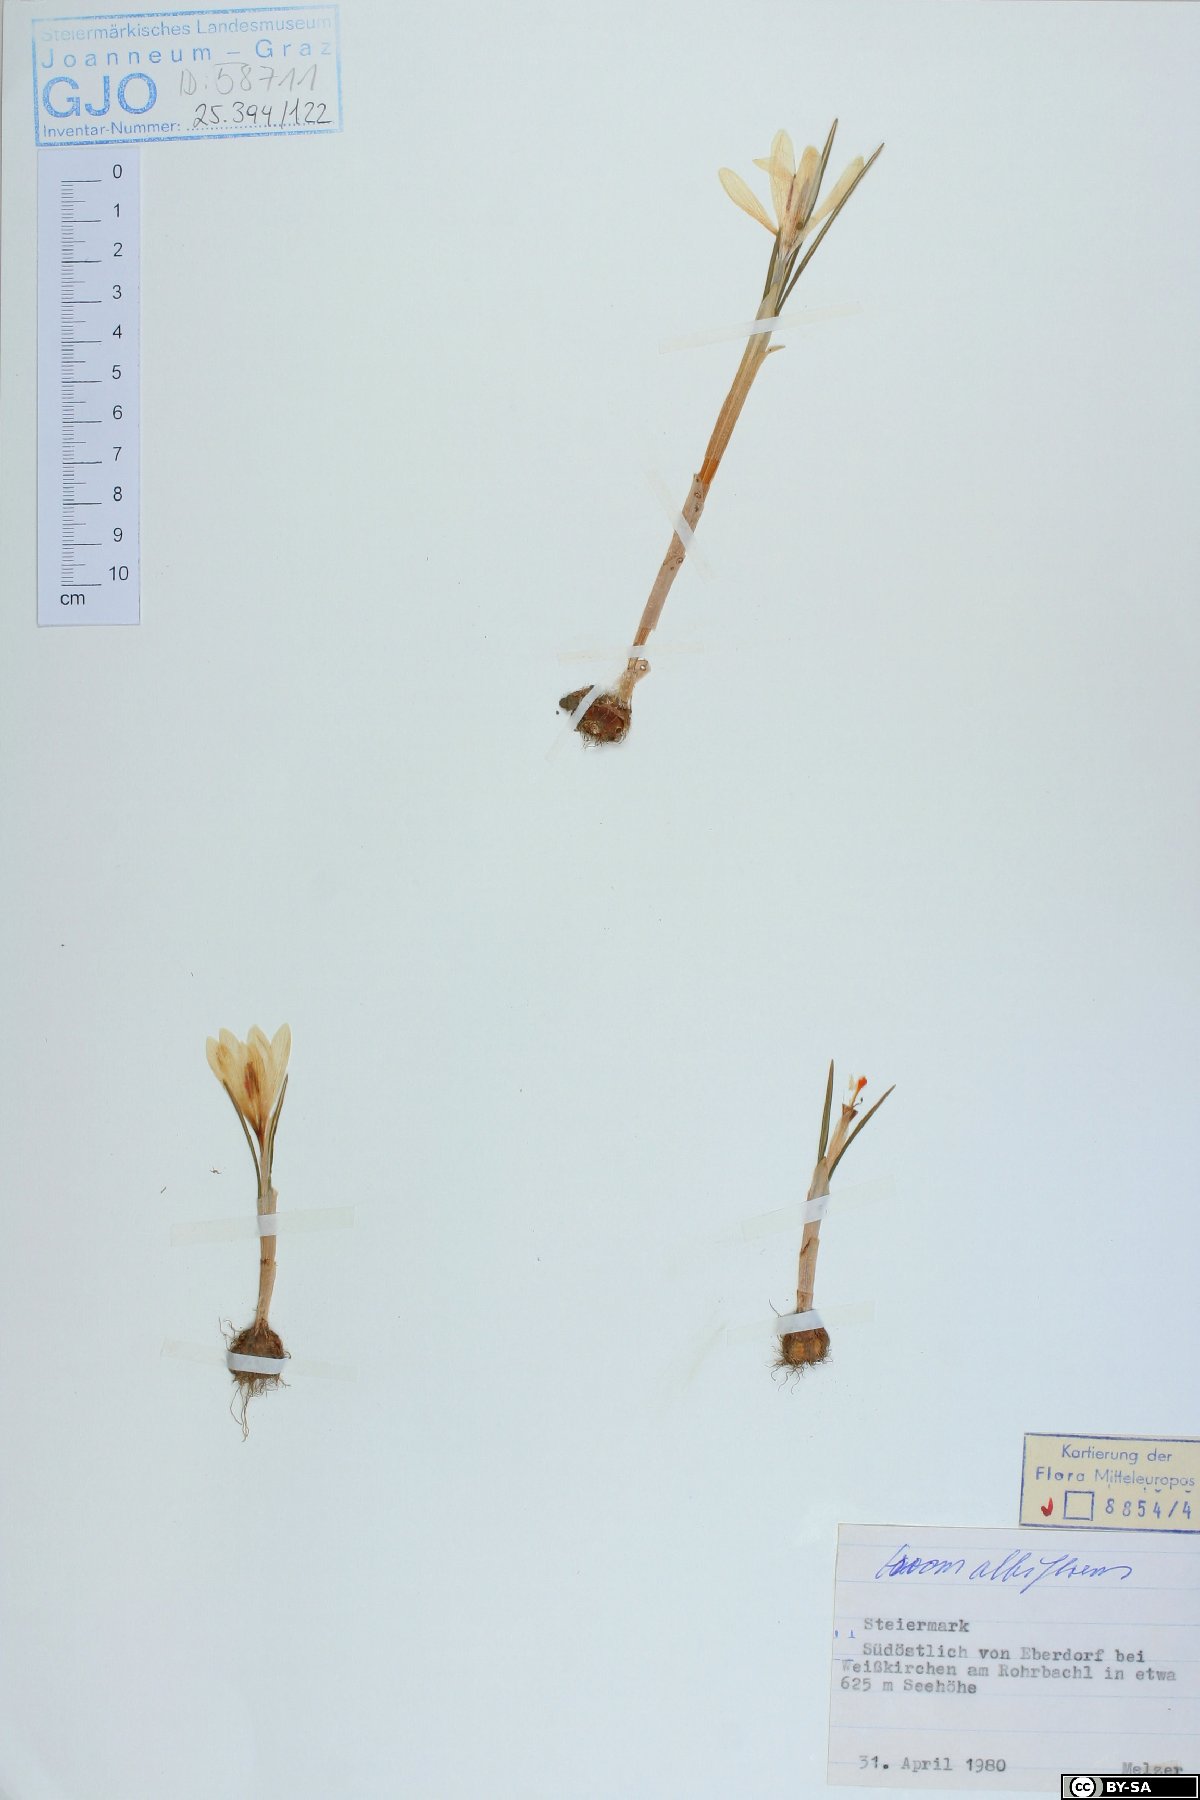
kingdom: Plantae
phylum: Tracheophyta
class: Liliopsida
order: Asparagales
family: Iridaceae
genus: Crocus
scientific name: Crocus vernus
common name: Spring crocus
